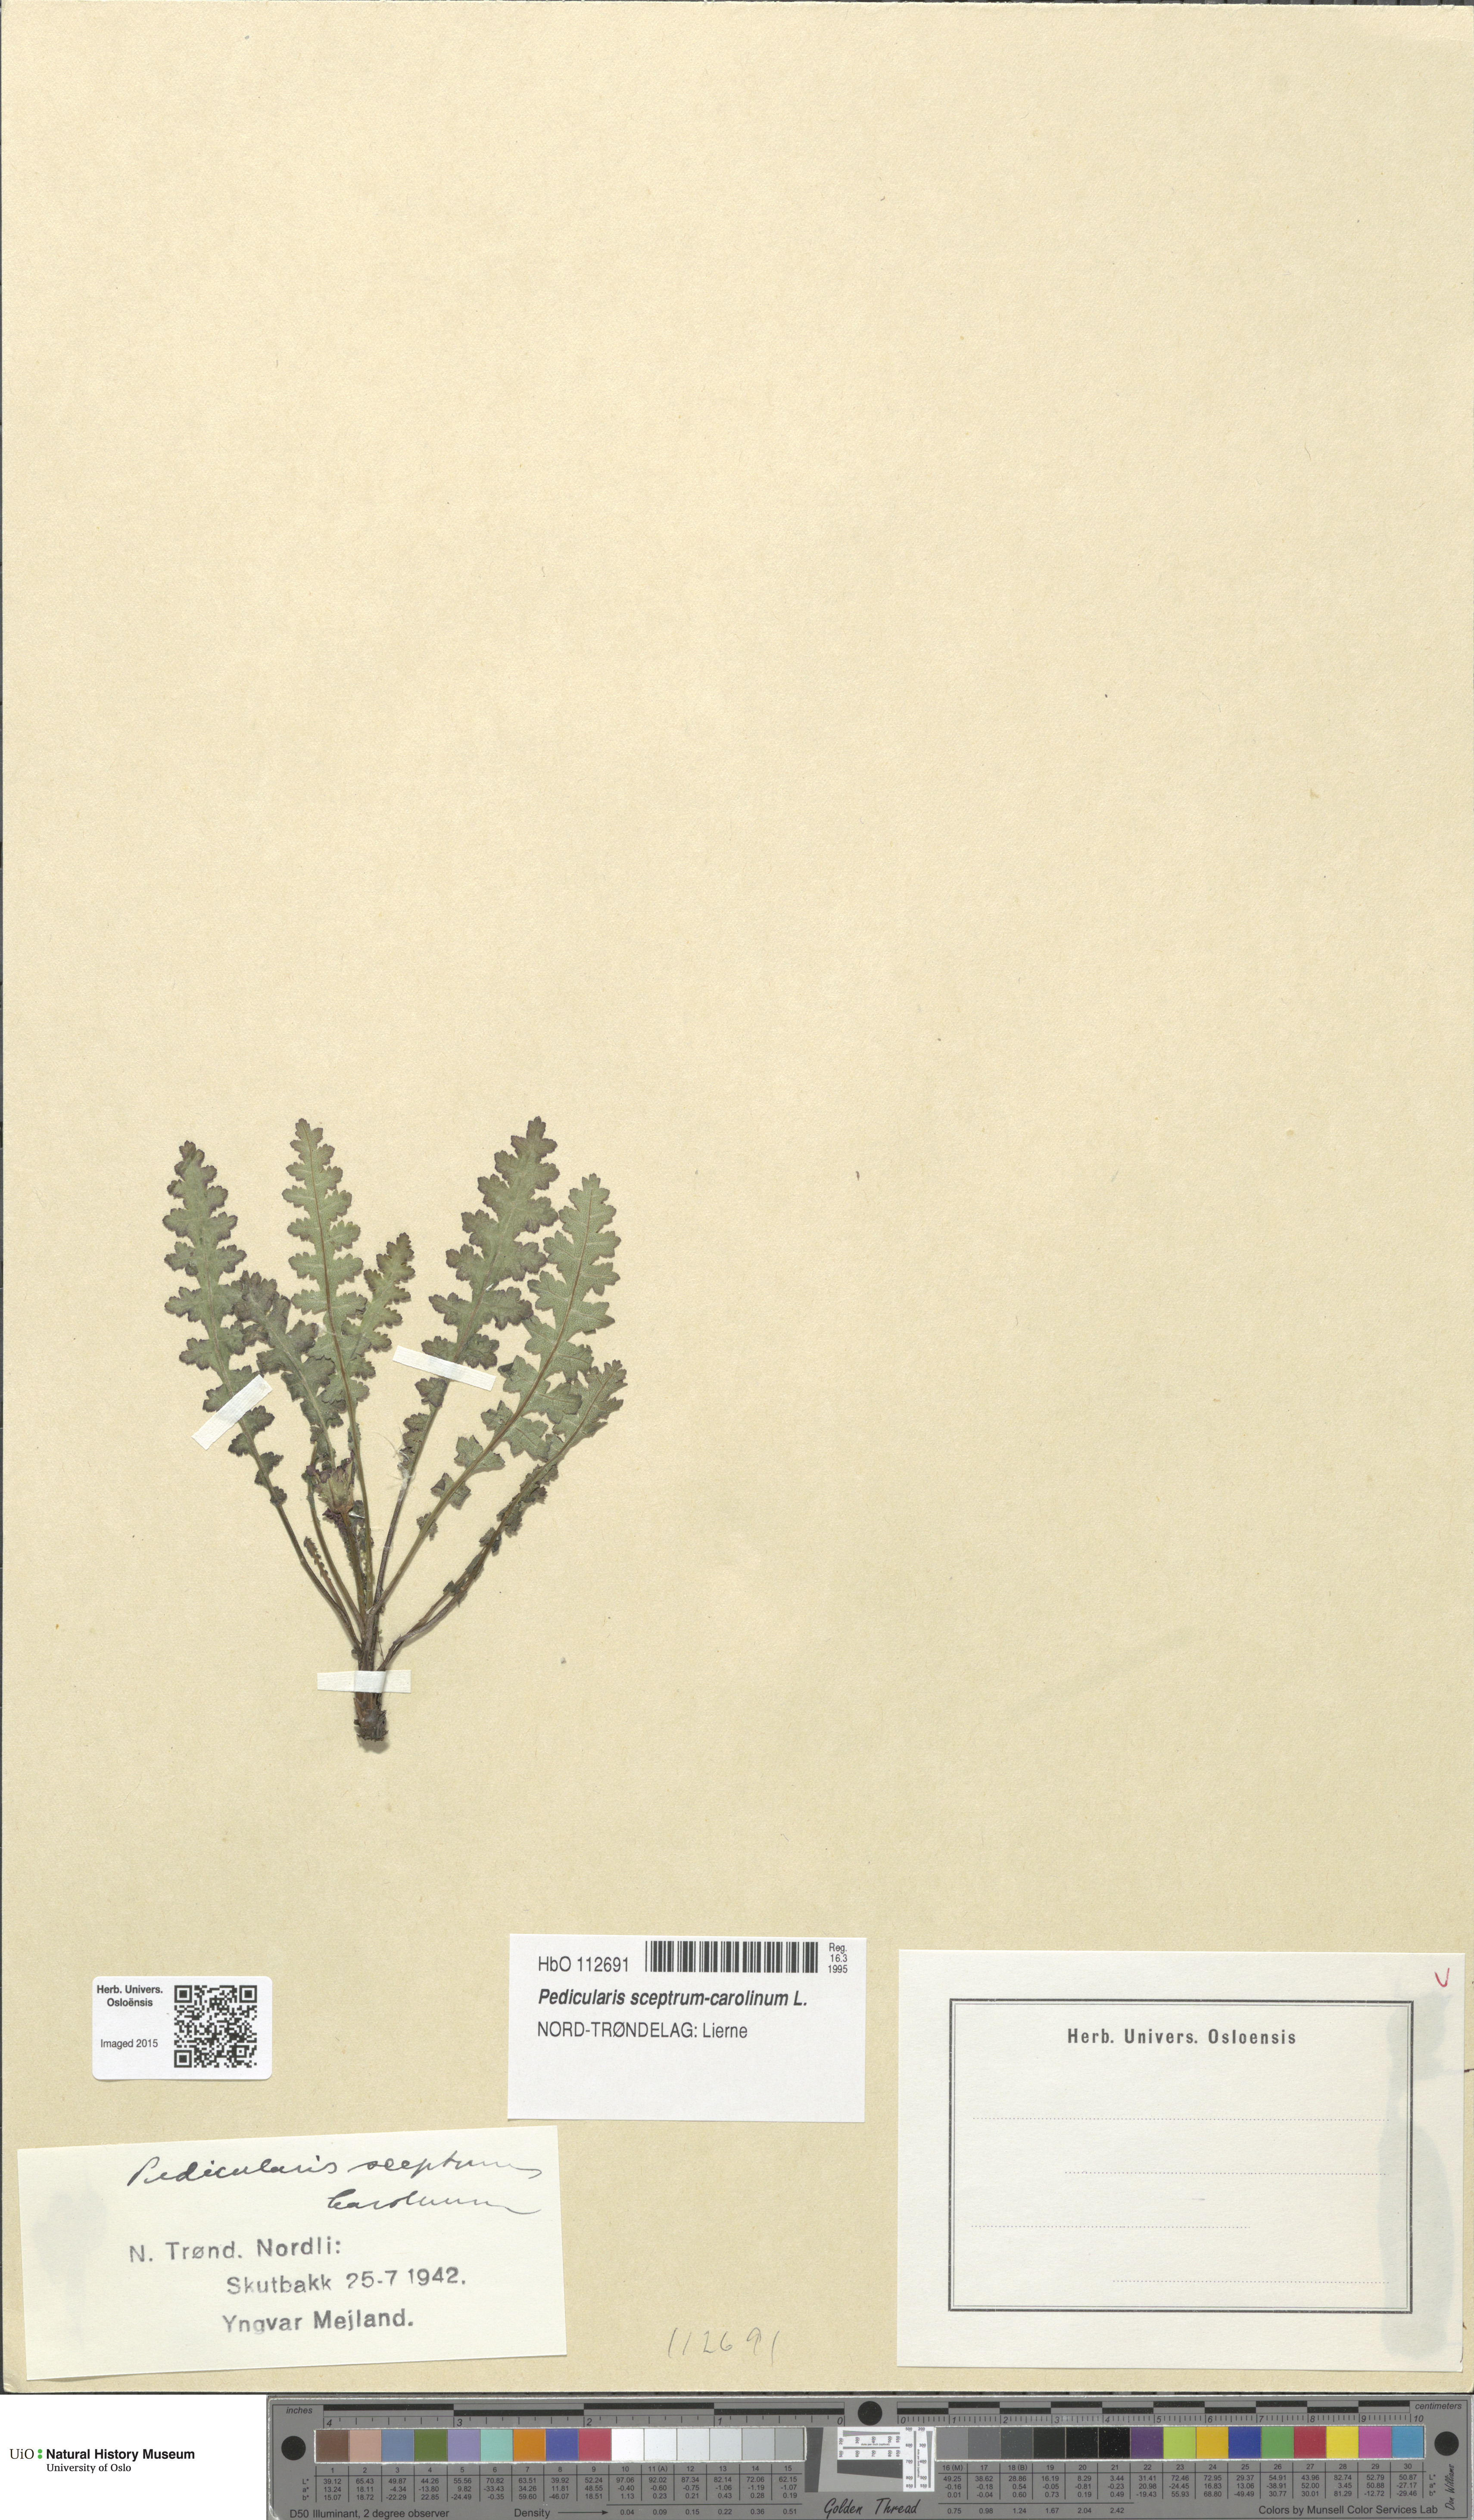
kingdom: Plantae
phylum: Tracheophyta
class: Magnoliopsida
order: Lamiales
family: Orobanchaceae
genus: Pedicularis
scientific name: Pedicularis sceptrum-carolinum
